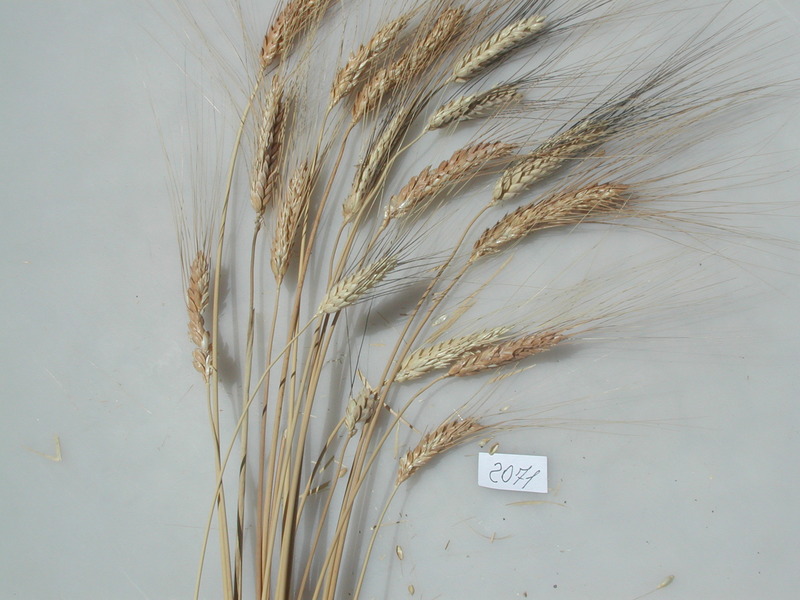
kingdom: Plantae
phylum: Tracheophyta
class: Liliopsida
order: Poales
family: Poaceae
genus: Triticum
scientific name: Triticum turgidum
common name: Wheat
